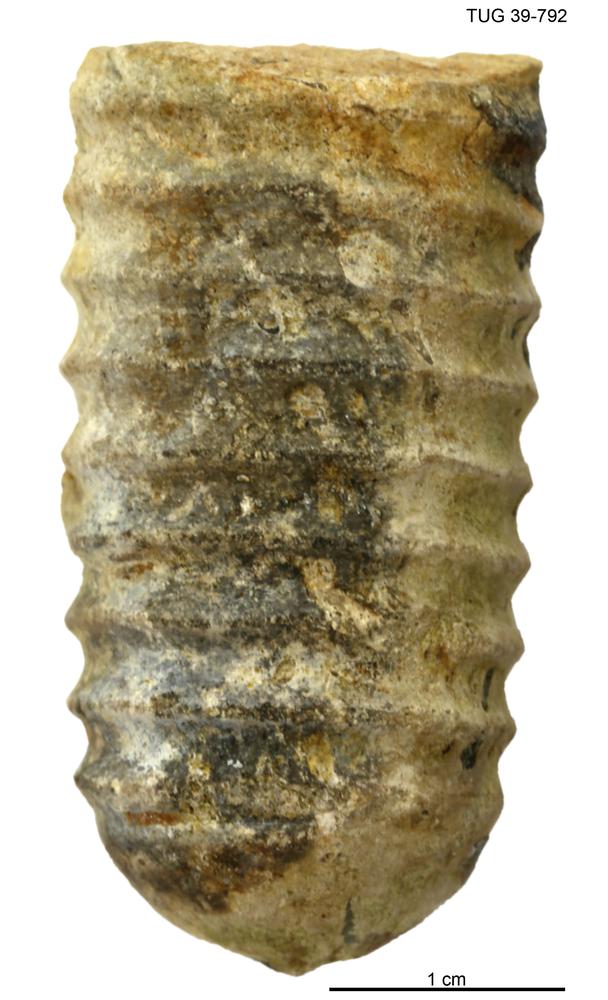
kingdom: Animalia
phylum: Mollusca
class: Cephalopoda
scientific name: Cephalopoda
